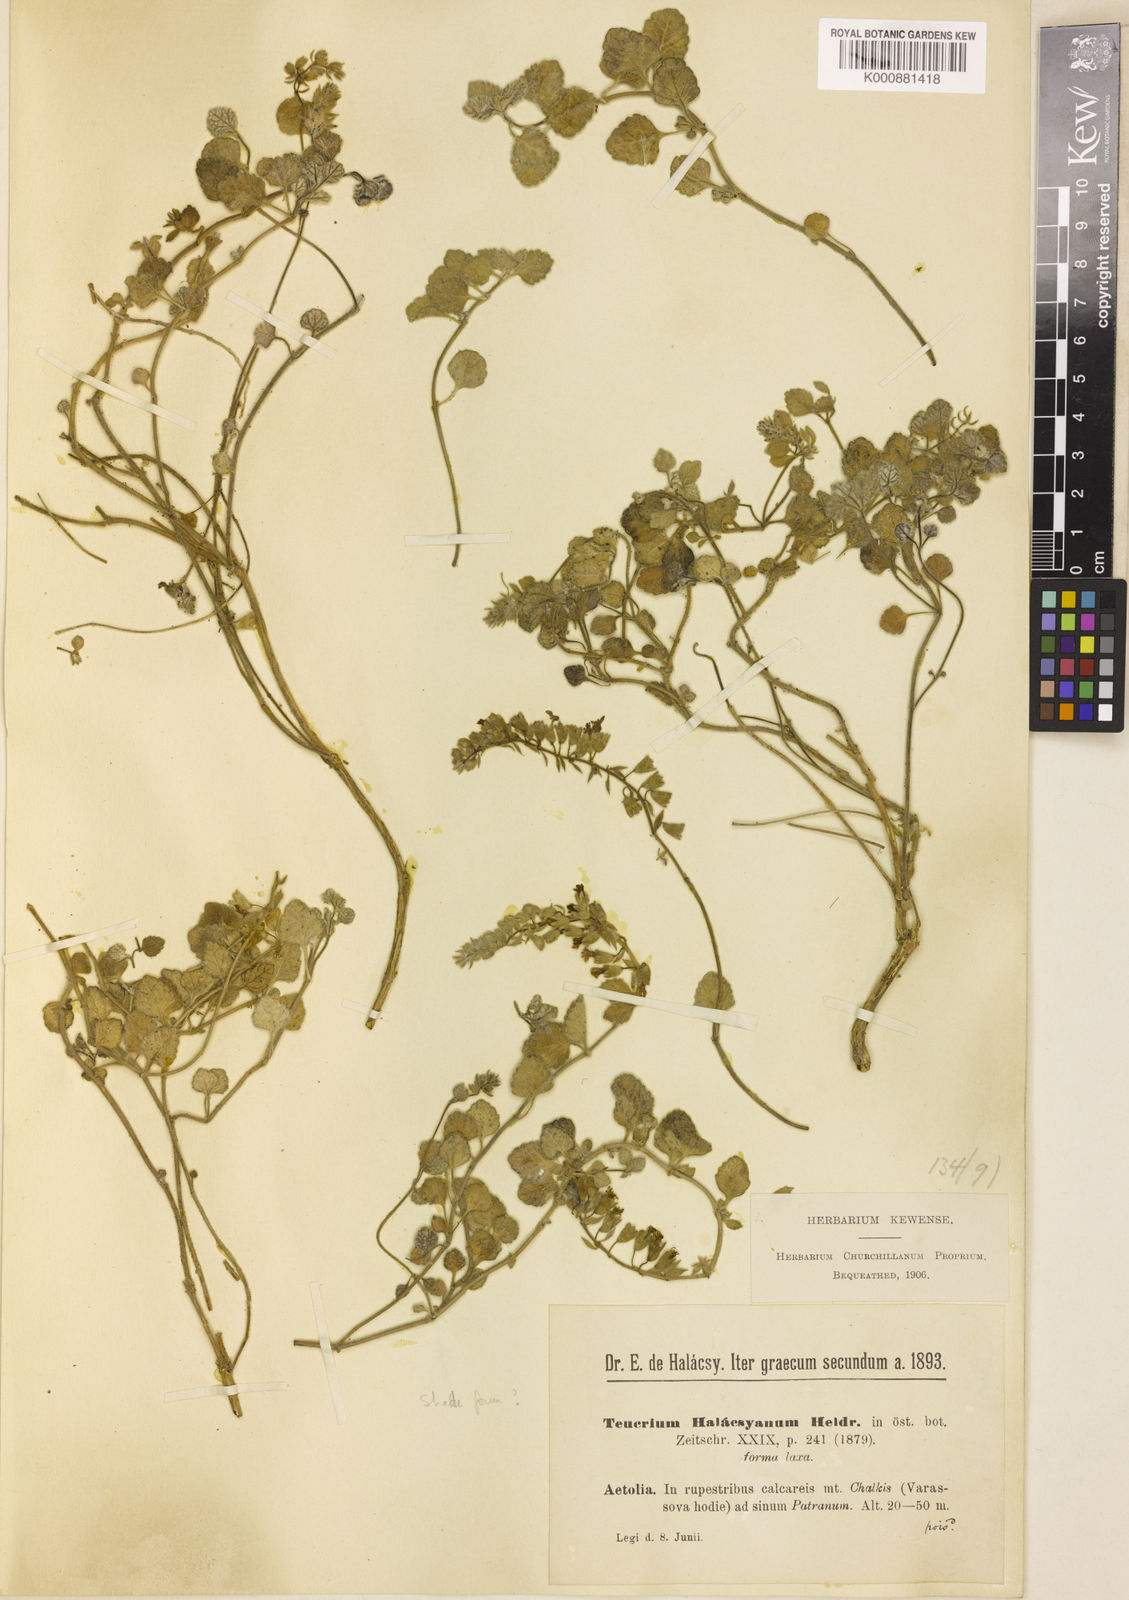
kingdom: Plantae
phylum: Tracheophyta
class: Magnoliopsida
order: Lamiales
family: Lamiaceae
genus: Teucrium
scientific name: Teucrium halacsyanum
